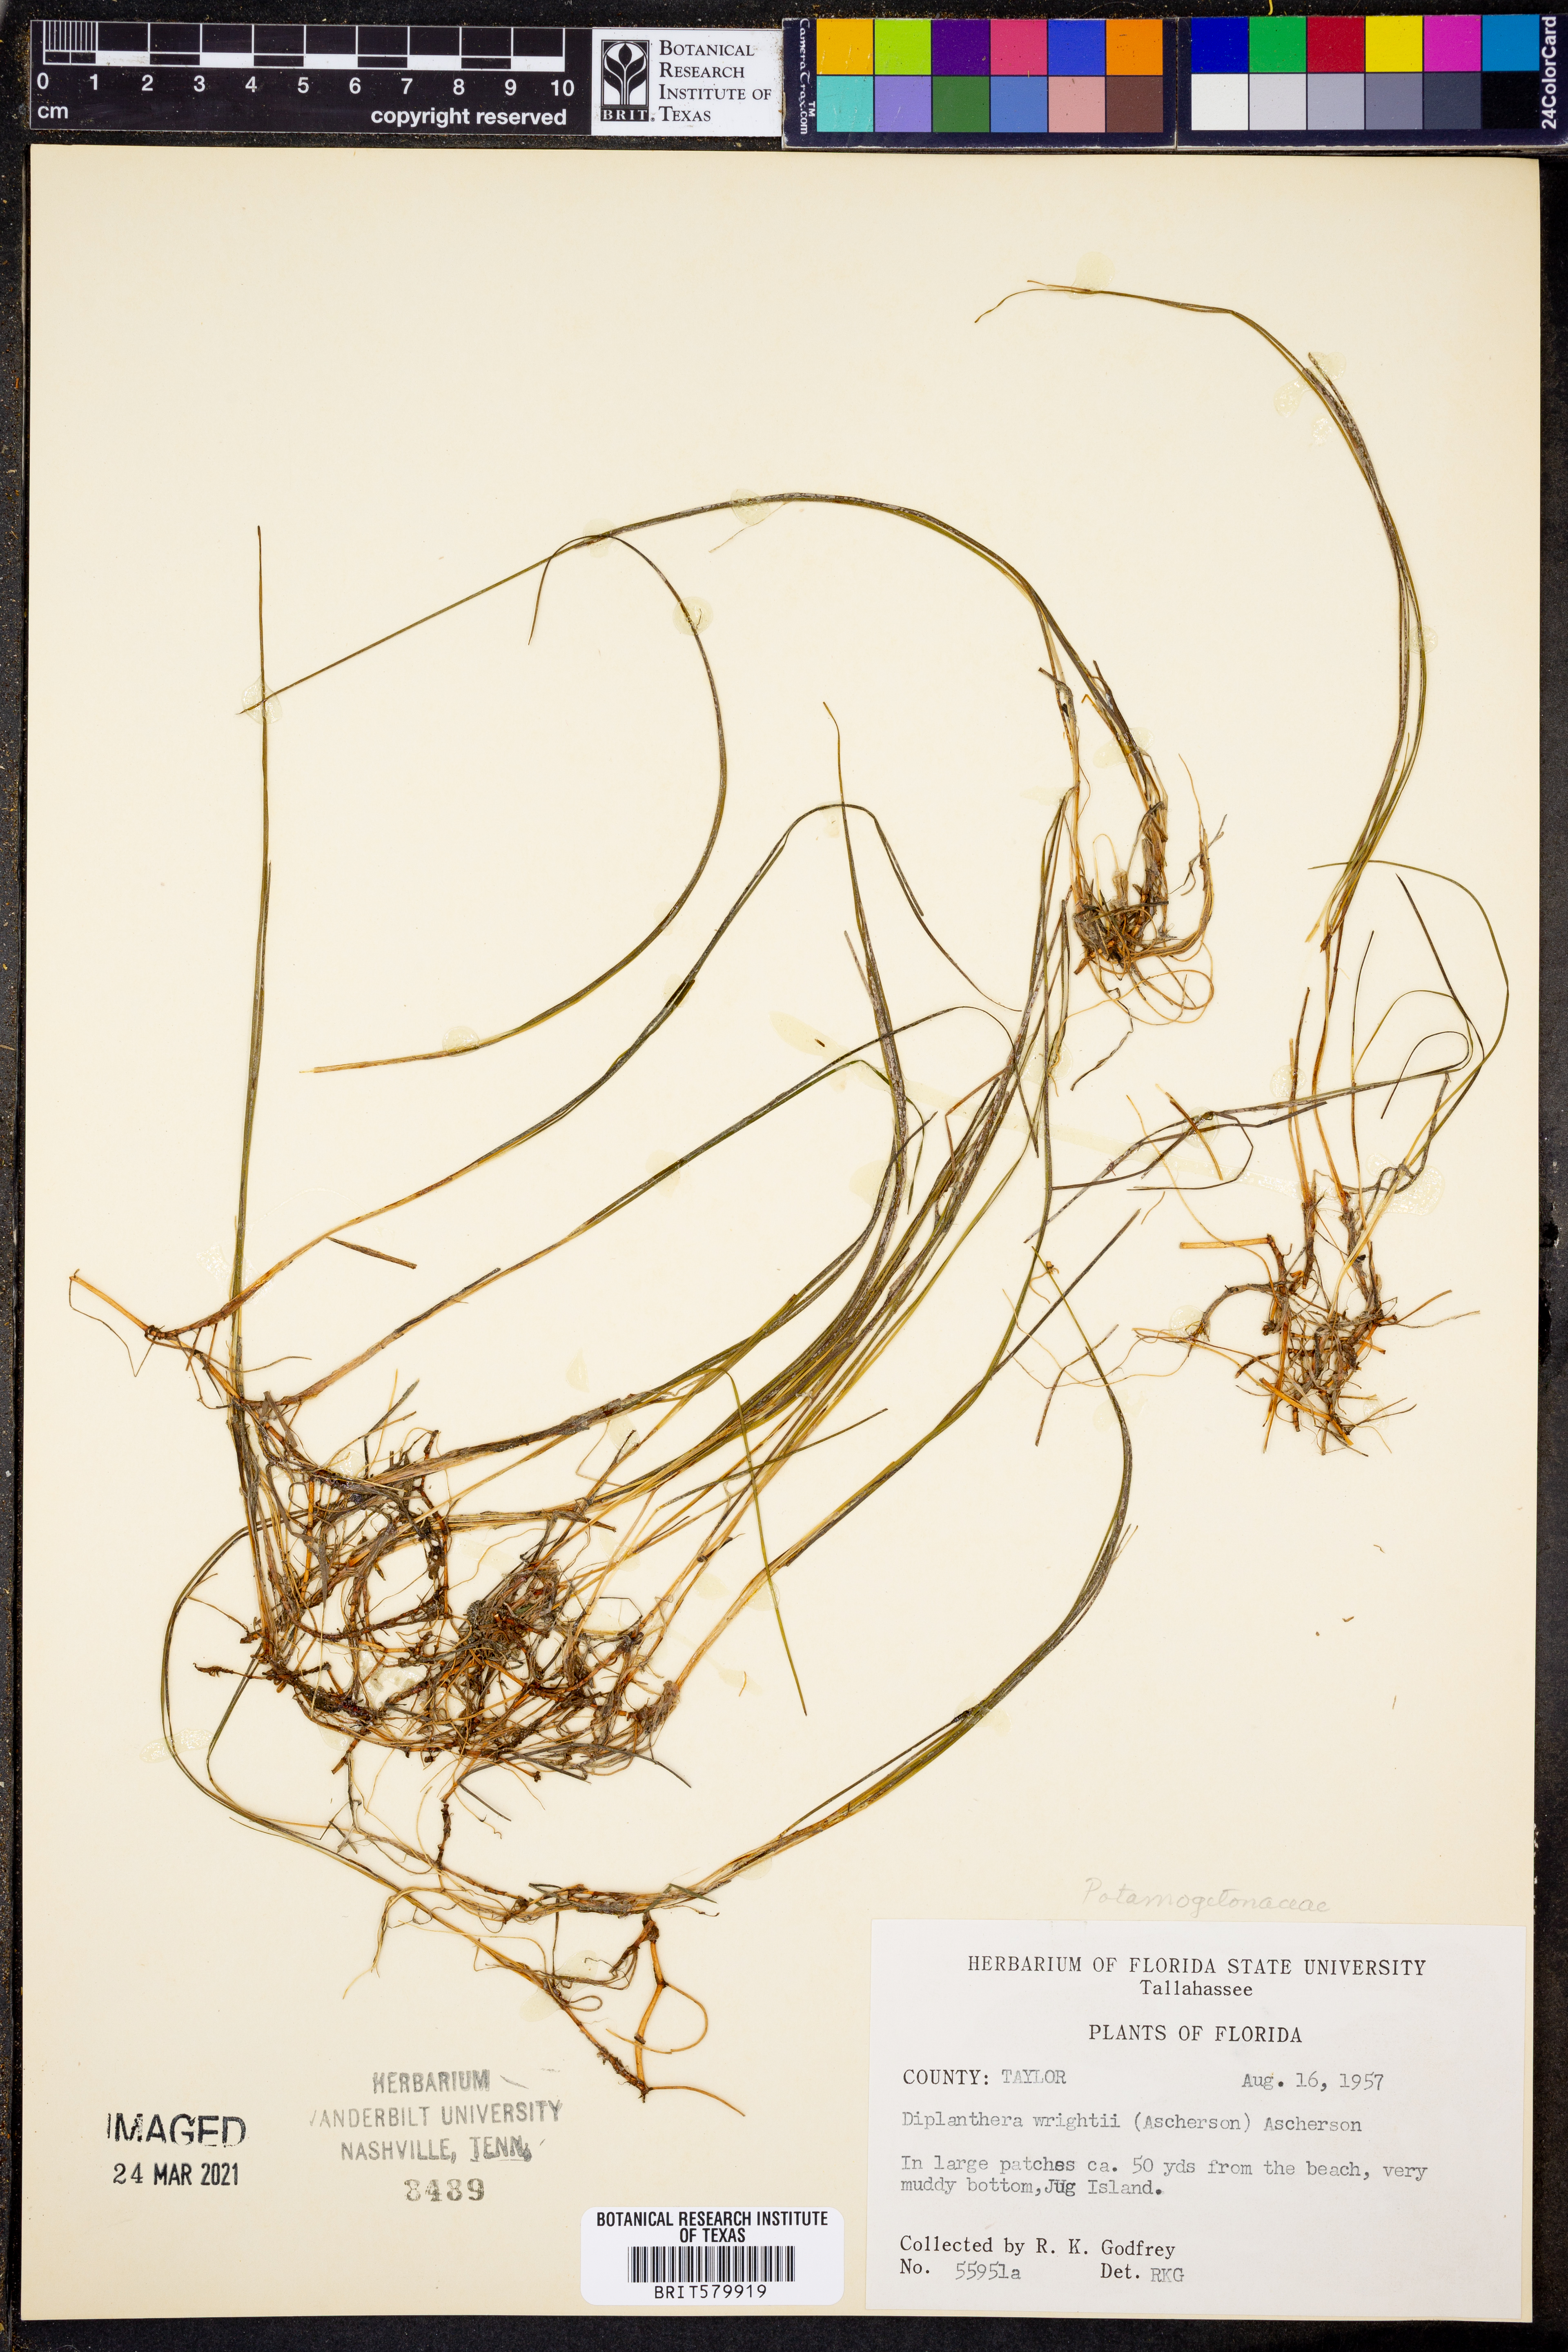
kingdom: Plantae
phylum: Tracheophyta
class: Liliopsida
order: Alismatales
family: Cymodoceaceae
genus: Halodule
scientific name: Halodule wrightii
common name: Shoalgrass
